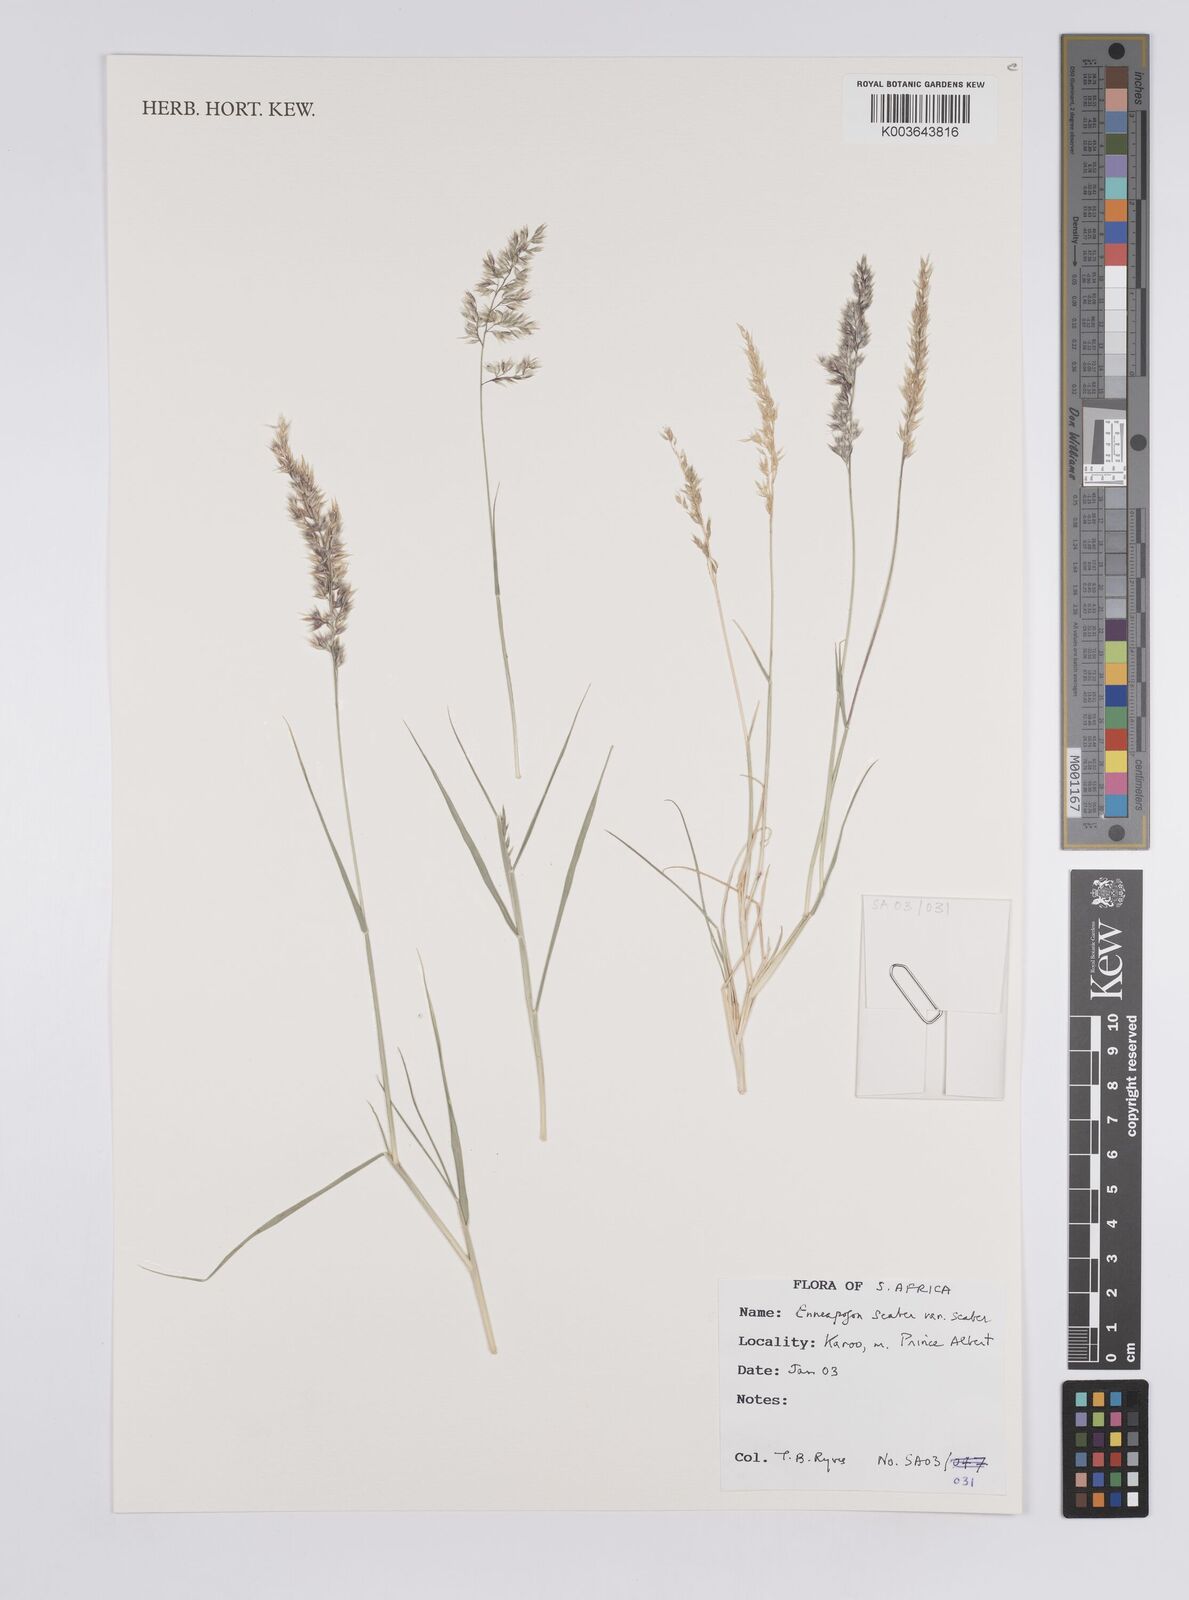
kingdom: Plantae
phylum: Tracheophyta
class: Liliopsida
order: Poales
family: Poaceae
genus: Enneapogon
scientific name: Enneapogon scaber
